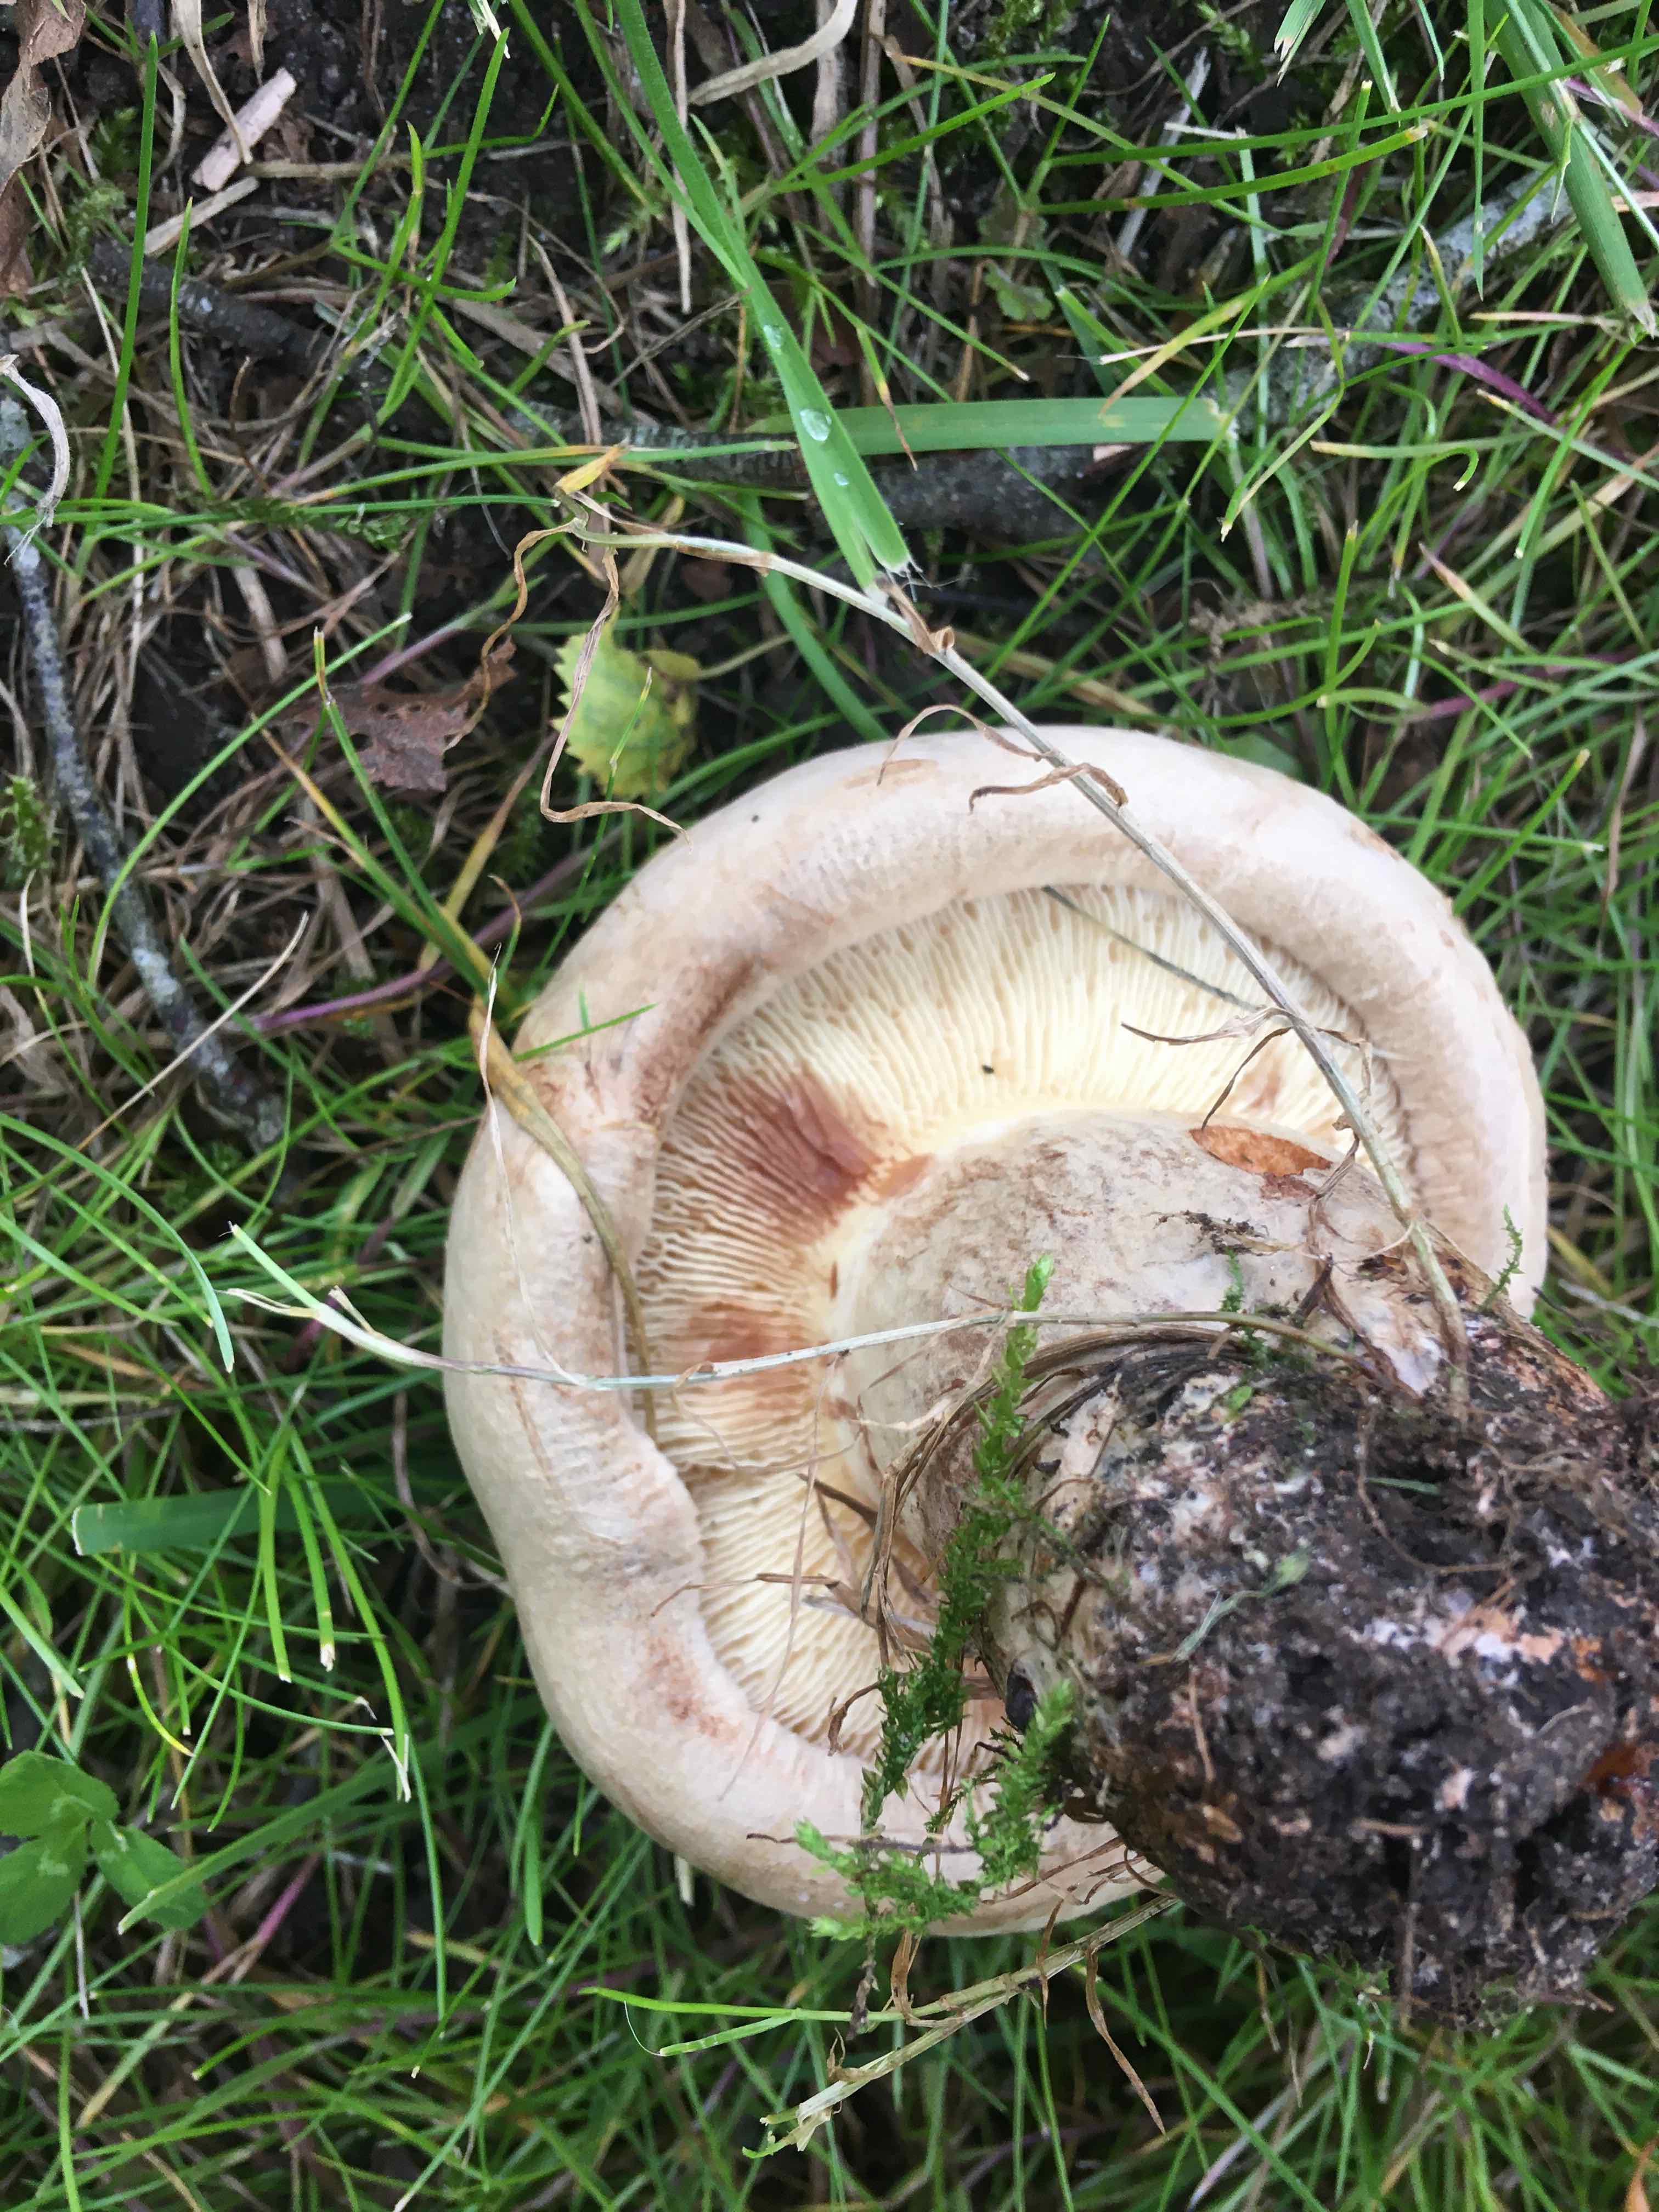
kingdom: Fungi
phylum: Basidiomycota
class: Agaricomycetes
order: Boletales
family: Paxillaceae
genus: Paxillus
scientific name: Paxillus
